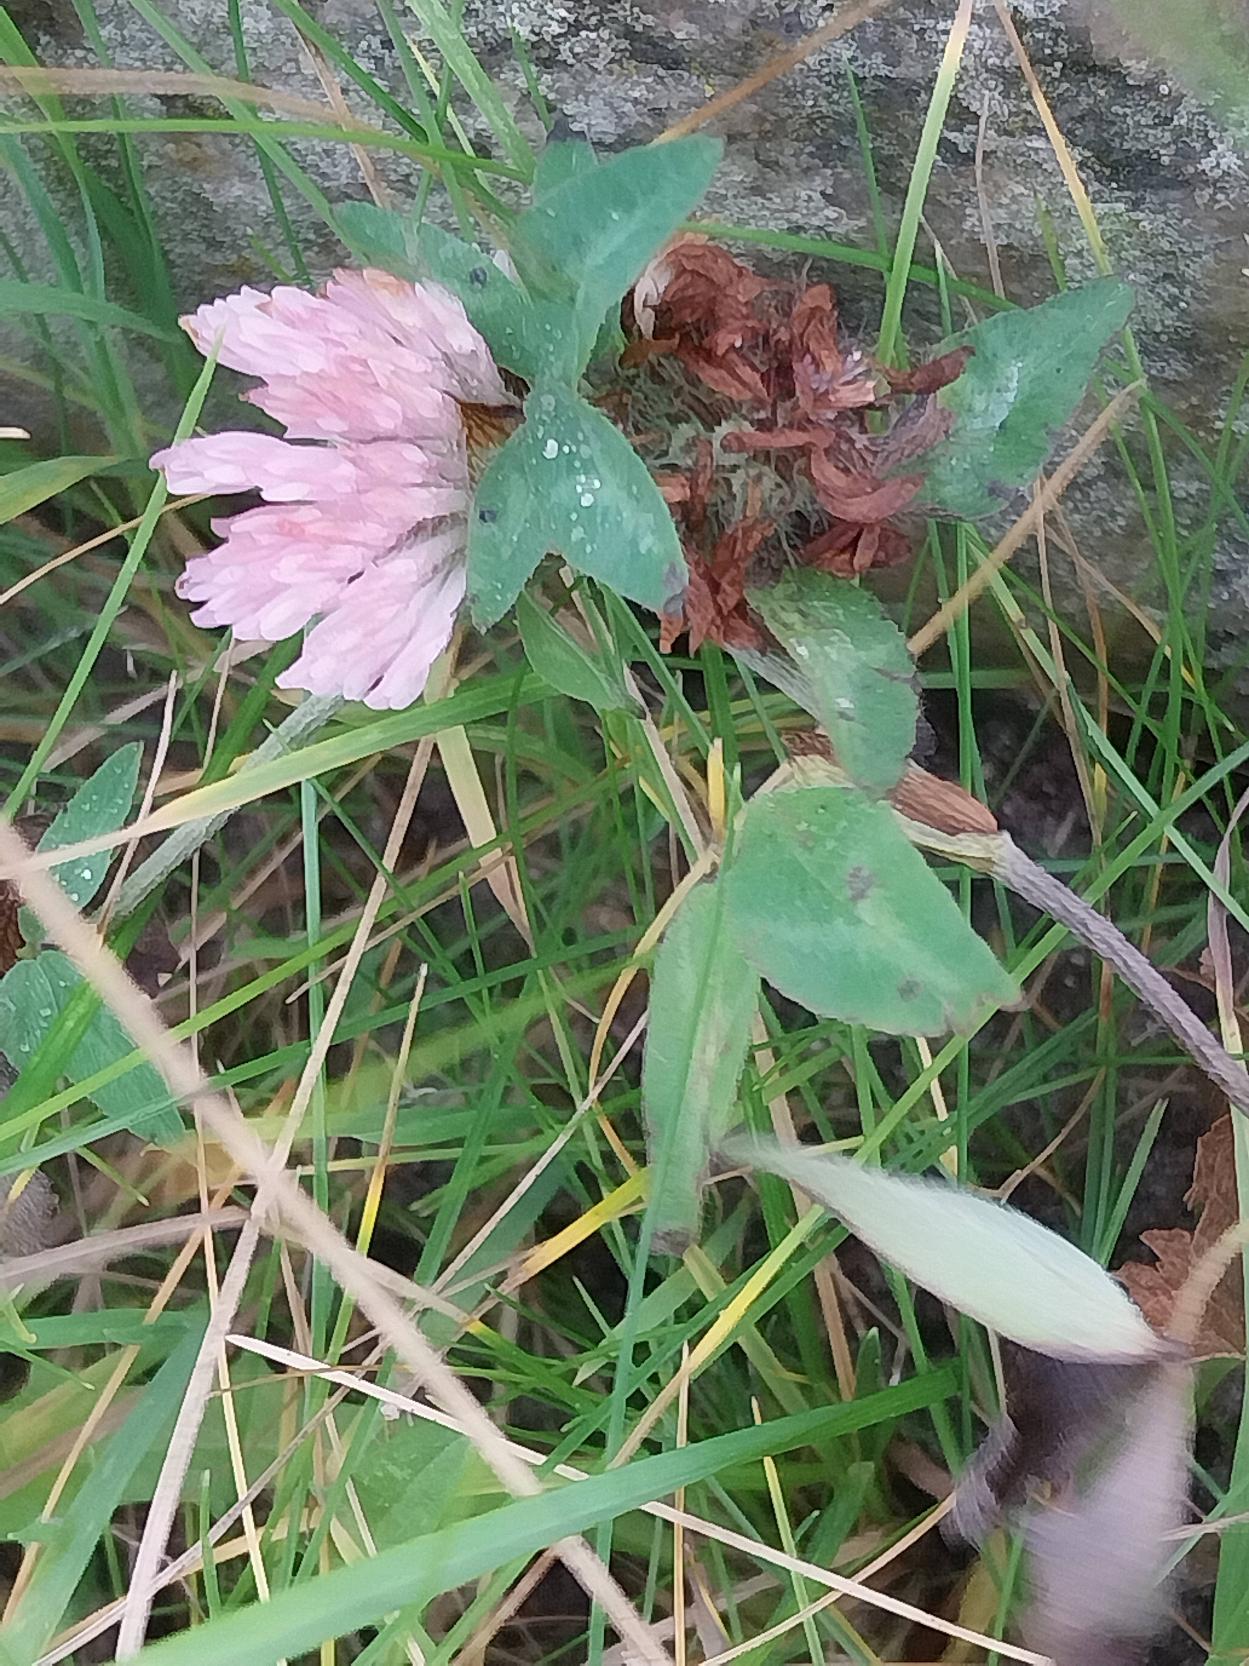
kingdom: Plantae
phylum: Tracheophyta
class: Magnoliopsida
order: Fabales
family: Fabaceae
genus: Trifolium
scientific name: Trifolium pratense
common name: Rød-kløver
